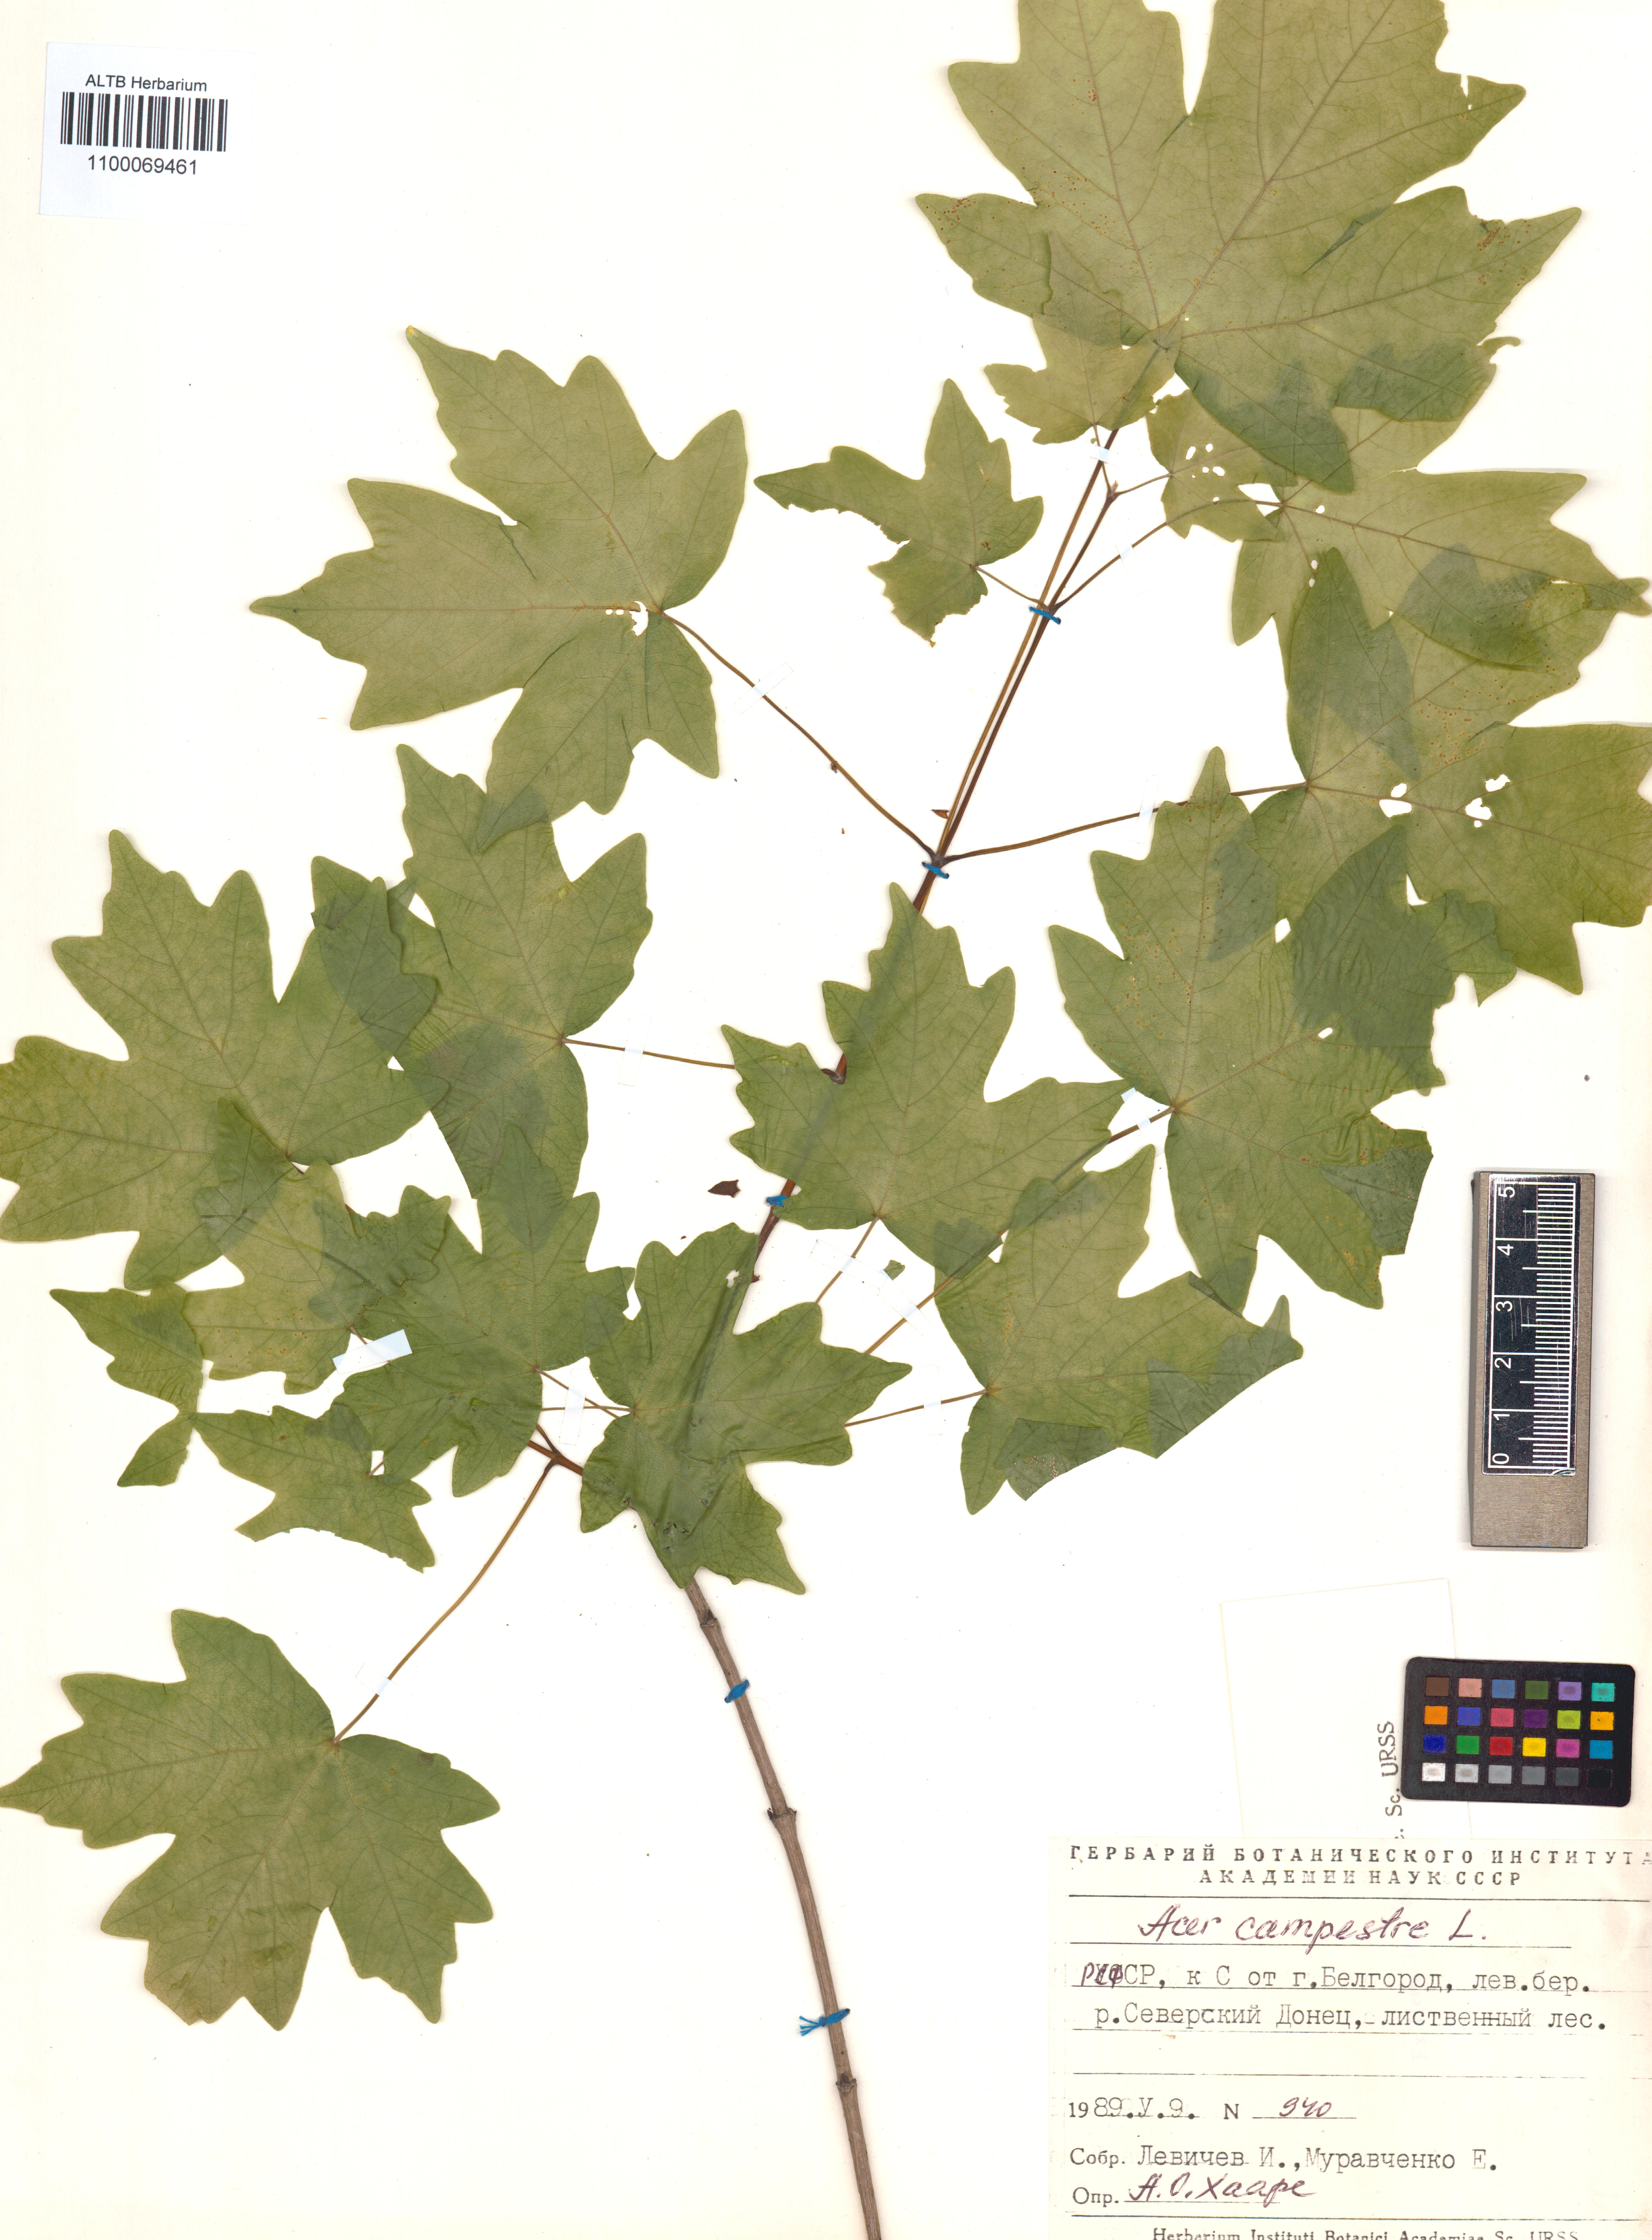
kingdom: Plantae
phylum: Tracheophyta
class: Magnoliopsida
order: Sapindales
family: Sapindaceae
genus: Acer
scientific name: Acer campestre
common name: Field maple
